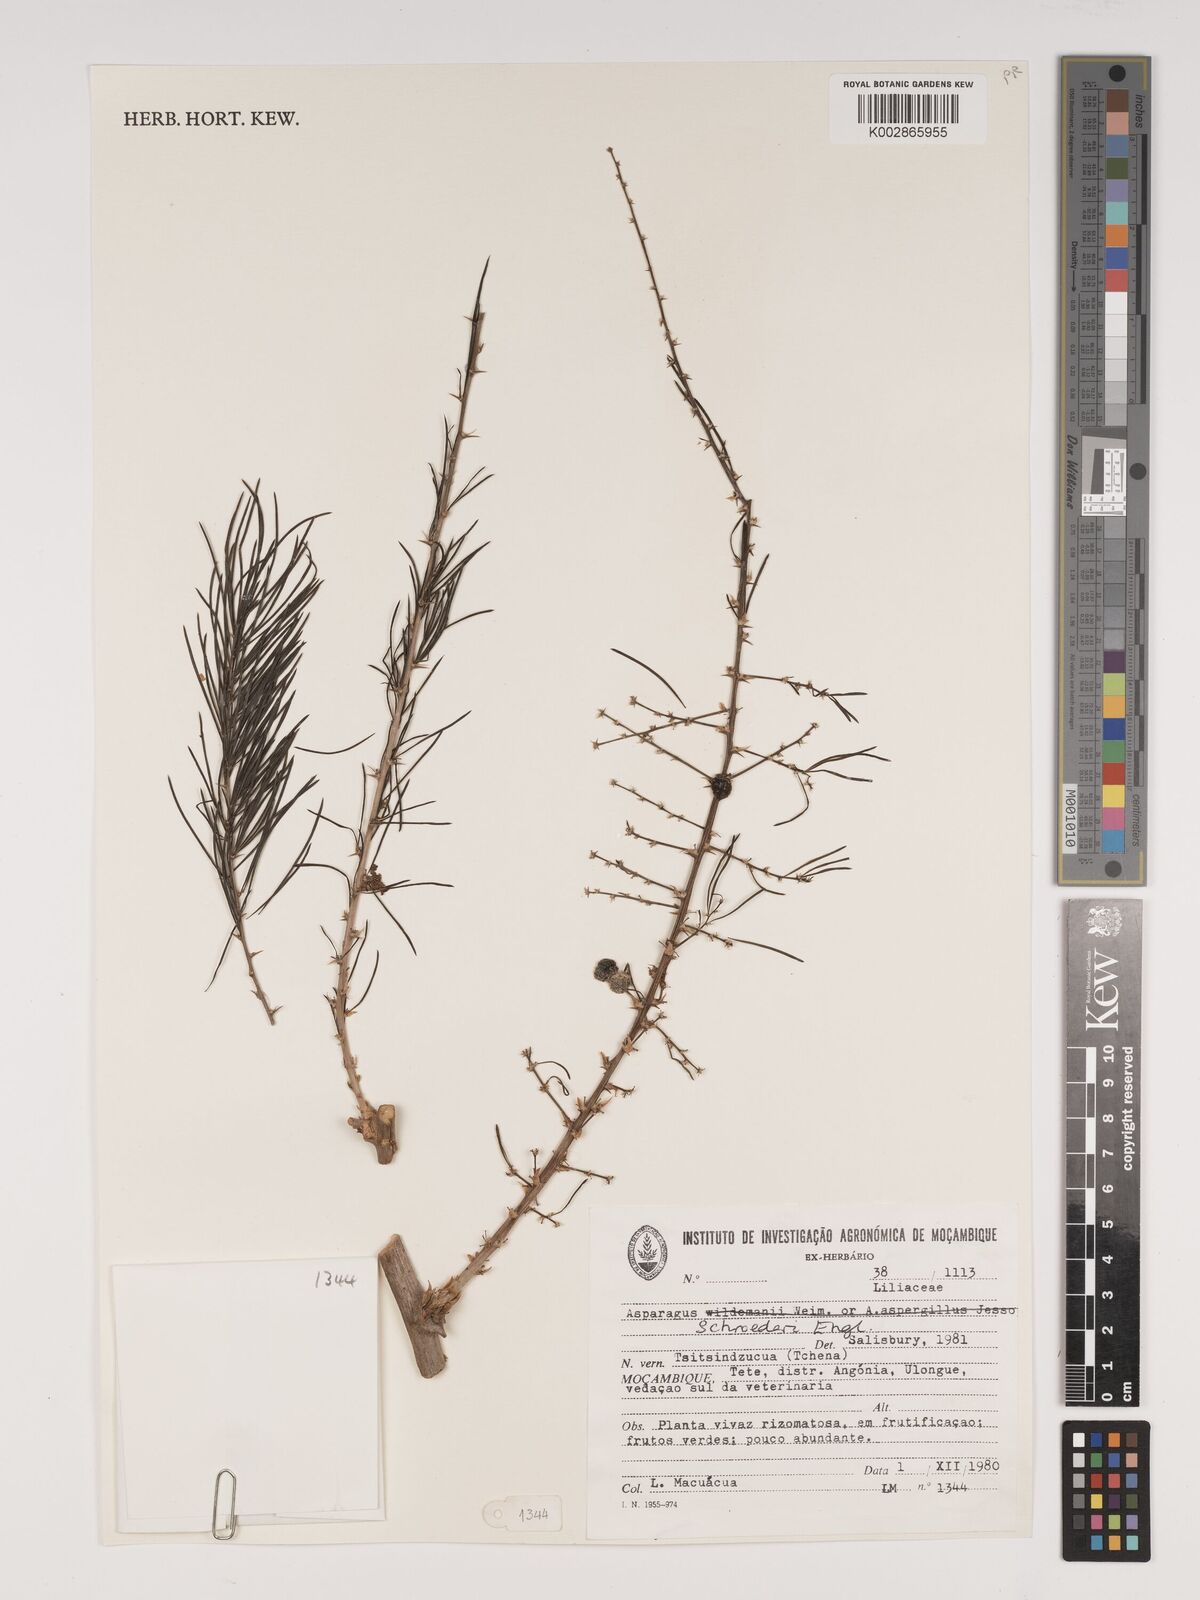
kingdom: Plantae
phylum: Tracheophyta
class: Liliopsida
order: Asparagales
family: Asparagaceae
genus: Asparagus
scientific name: Asparagus schroederi
